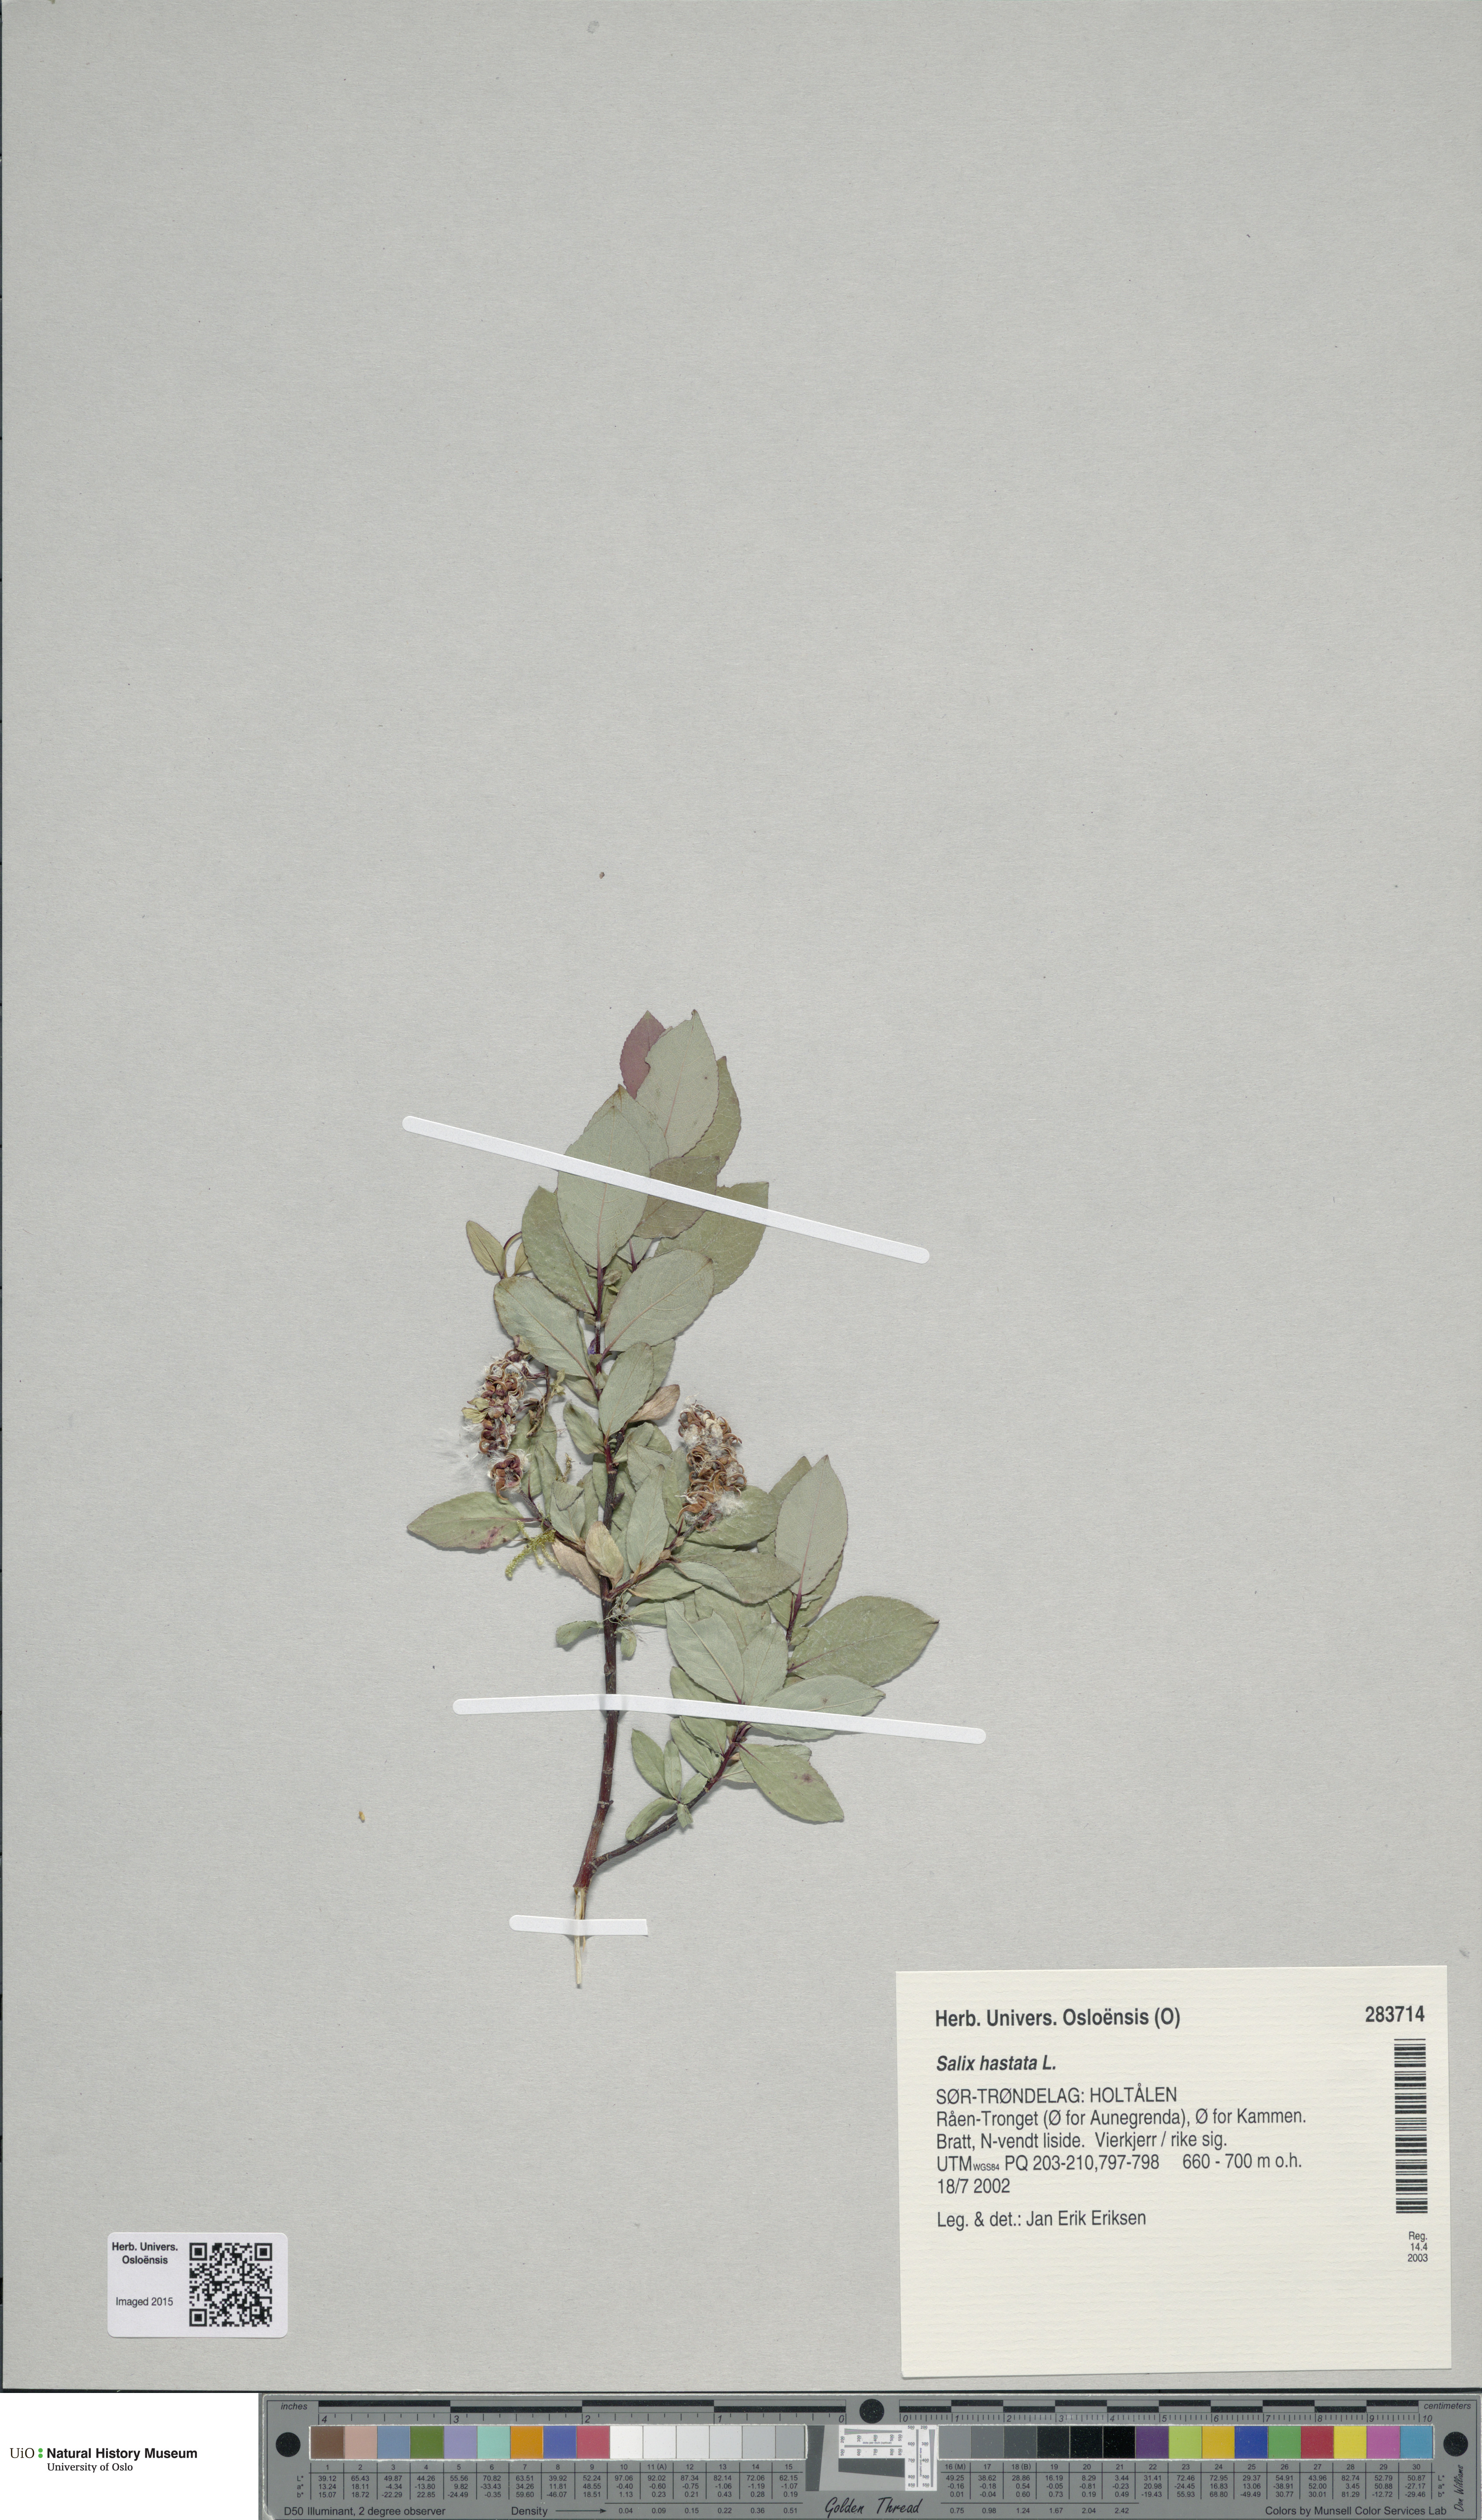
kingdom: Plantae
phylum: Tracheophyta
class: Magnoliopsida
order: Malpighiales
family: Salicaceae
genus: Salix
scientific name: Salix hastata
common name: Halberd willow
